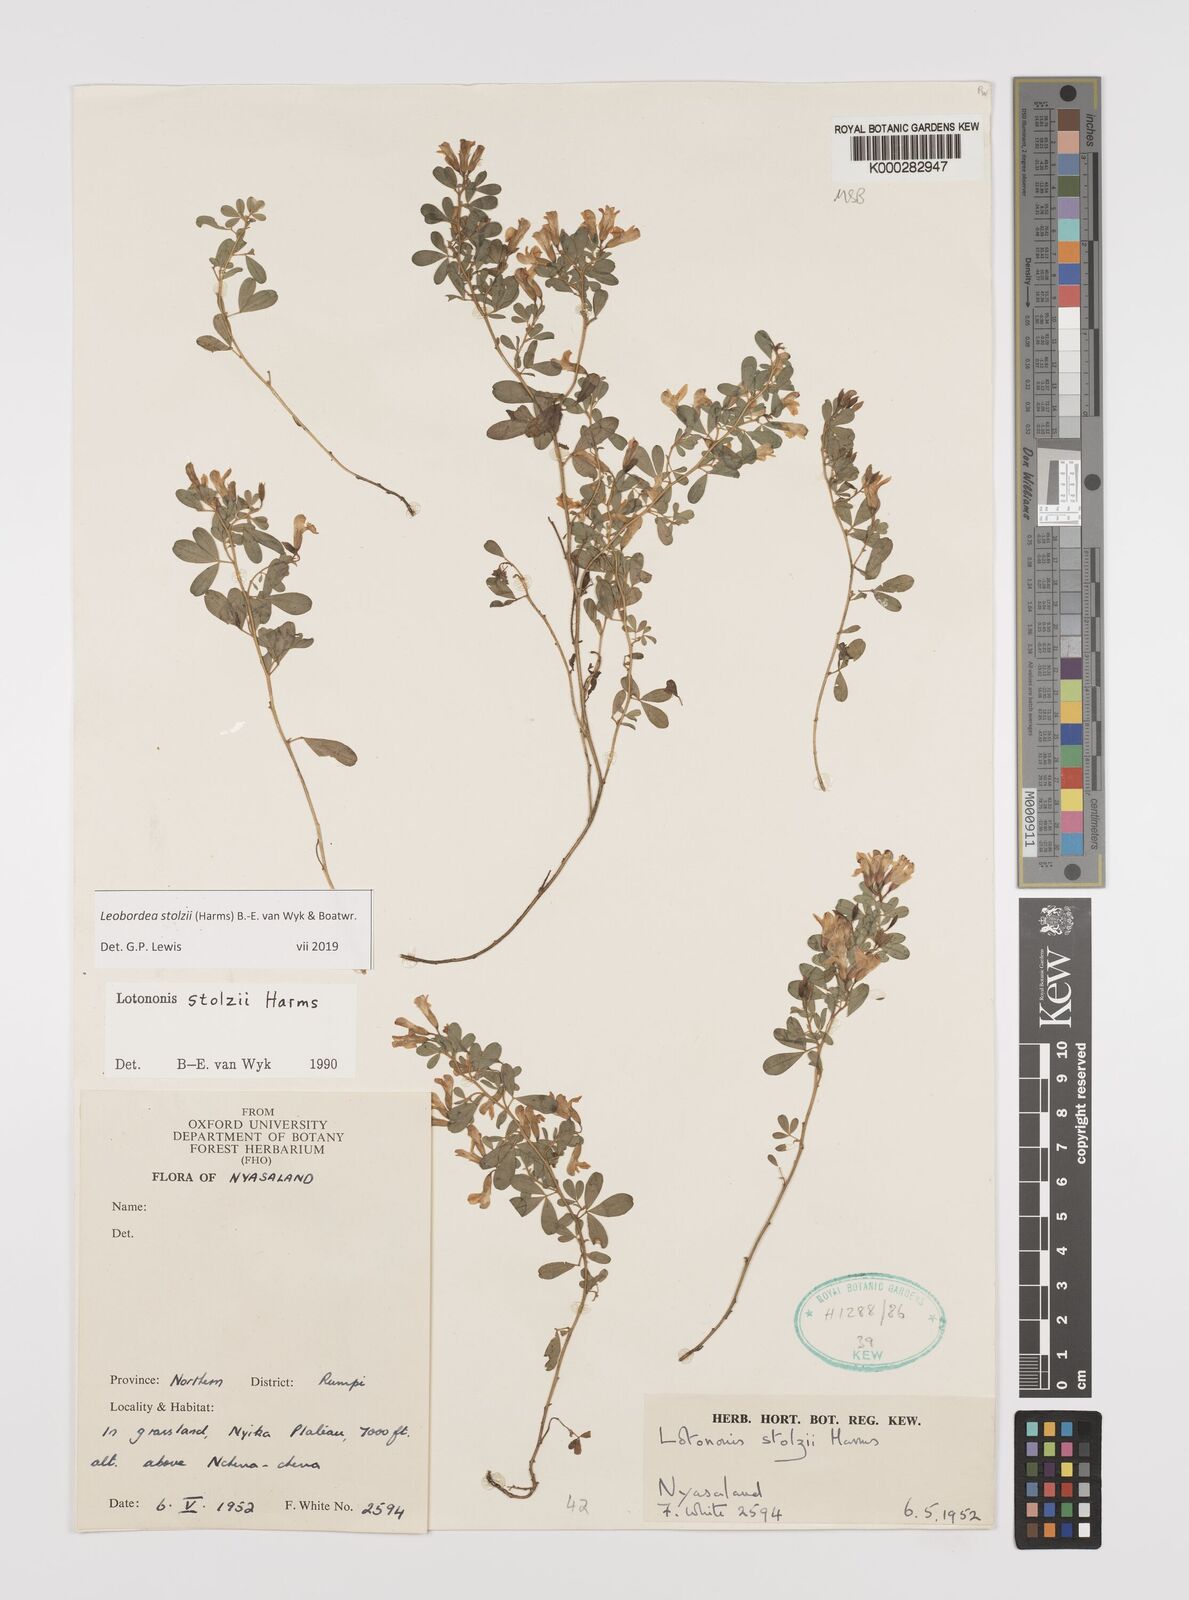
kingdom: Plantae
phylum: Tracheophyta
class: Magnoliopsida
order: Fabales
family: Fabaceae
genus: Leobordea
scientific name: Leobordea stolzii
